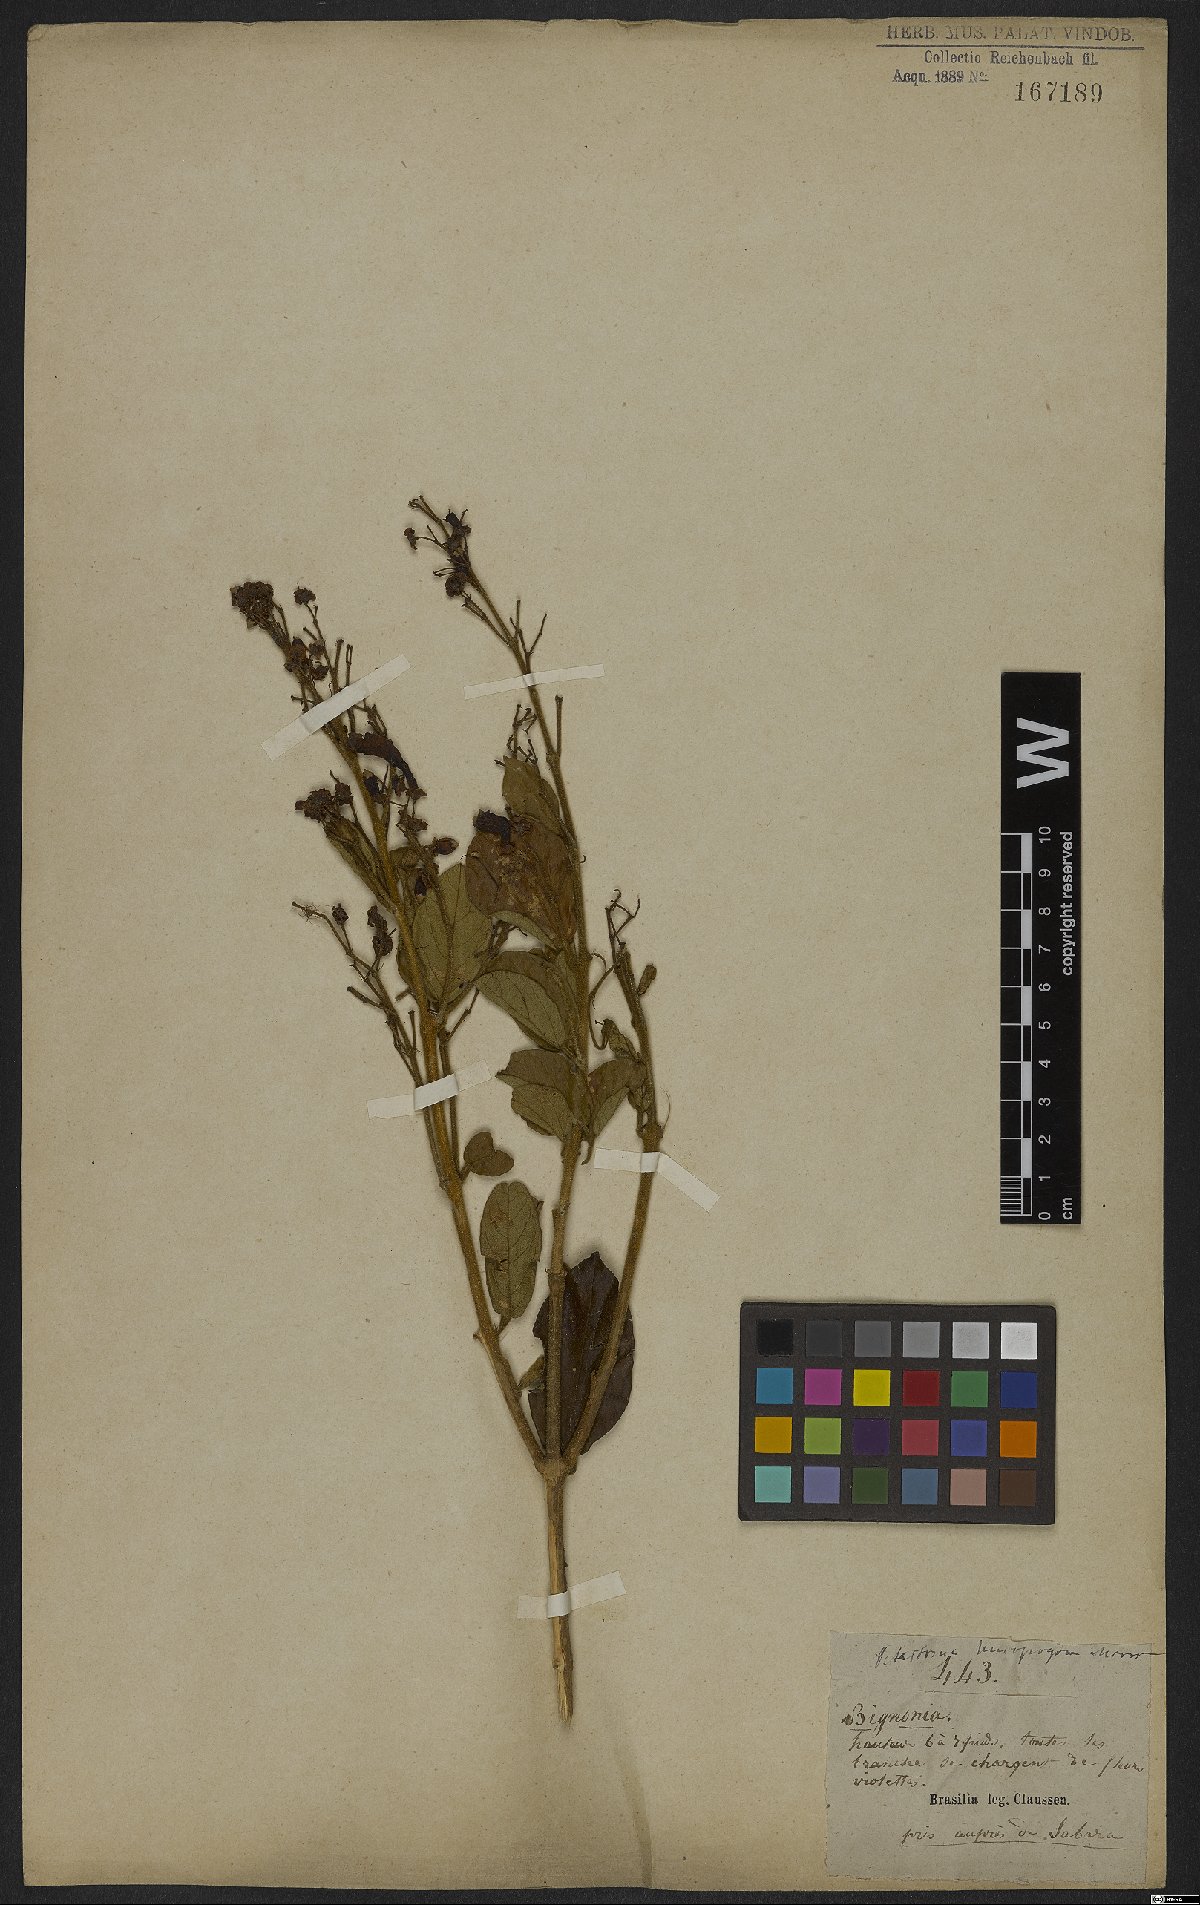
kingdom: Plantae
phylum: Tracheophyta
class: Magnoliopsida
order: Lamiales
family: Bignoniaceae
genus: Fridericia
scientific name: Fridericia leucopogon
